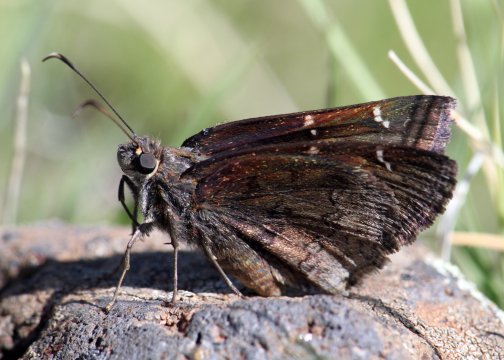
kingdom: Animalia
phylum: Arthropoda
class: Insecta
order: Lepidoptera
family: Hesperiidae
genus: Autochton
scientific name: Autochton
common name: Northern Cloudywing
